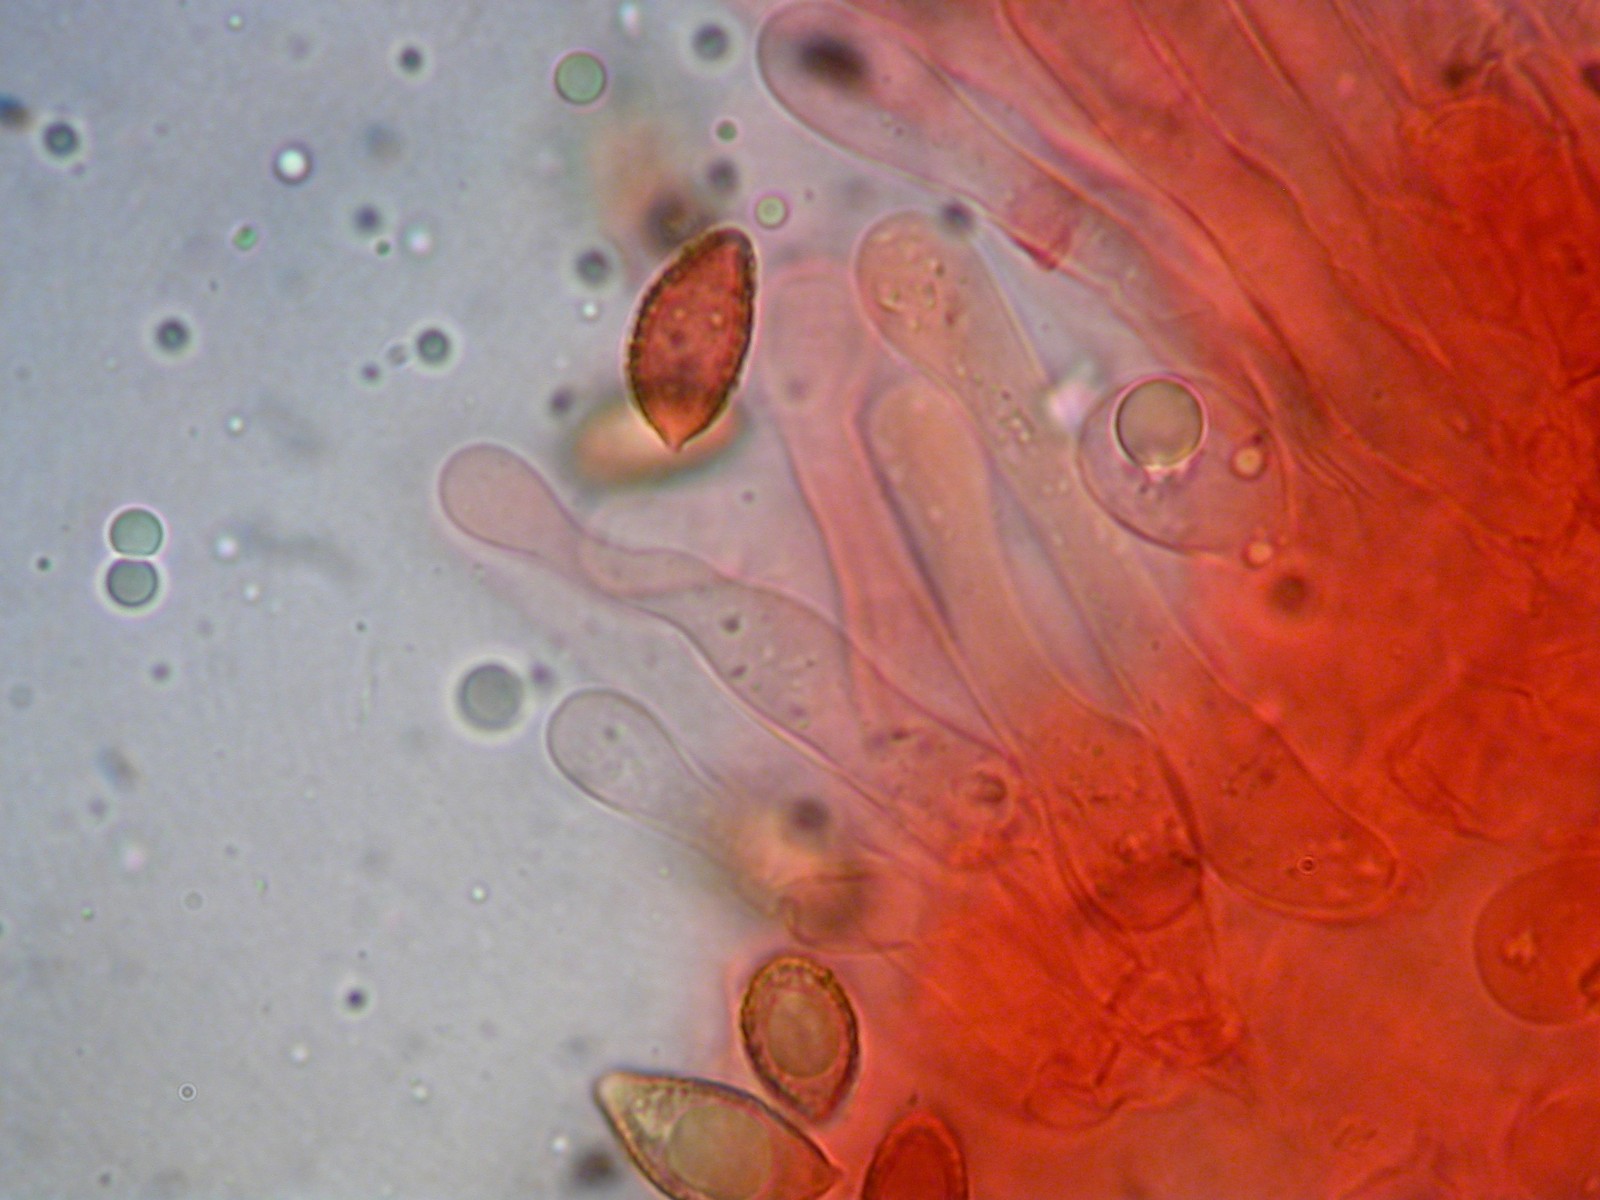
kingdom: Fungi
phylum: Basidiomycota
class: Agaricomycetes
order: Agaricales
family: Hymenogastraceae
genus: Hebeloma
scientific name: Hebeloma cavipes
